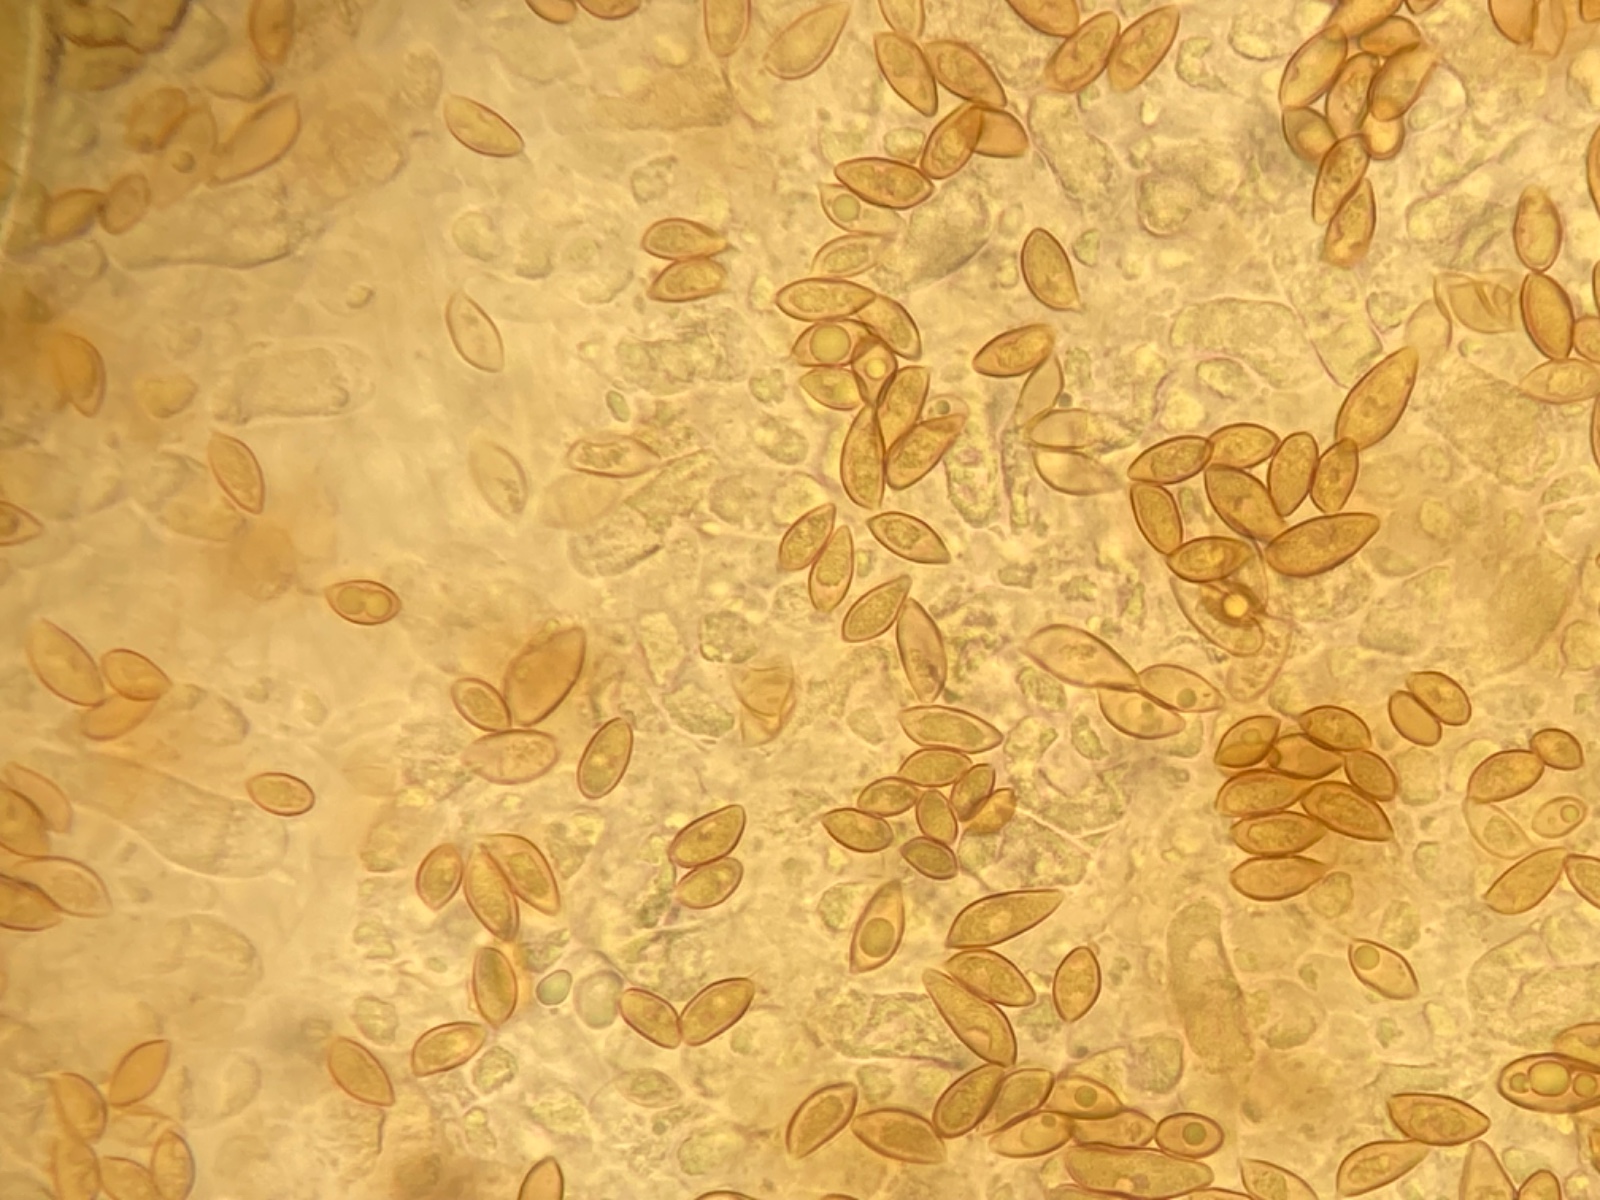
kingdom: Fungi
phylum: Basidiomycota
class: Agaricomycetes
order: Agaricales
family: Hymenogastraceae
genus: Hebeloma
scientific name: Hebeloma
